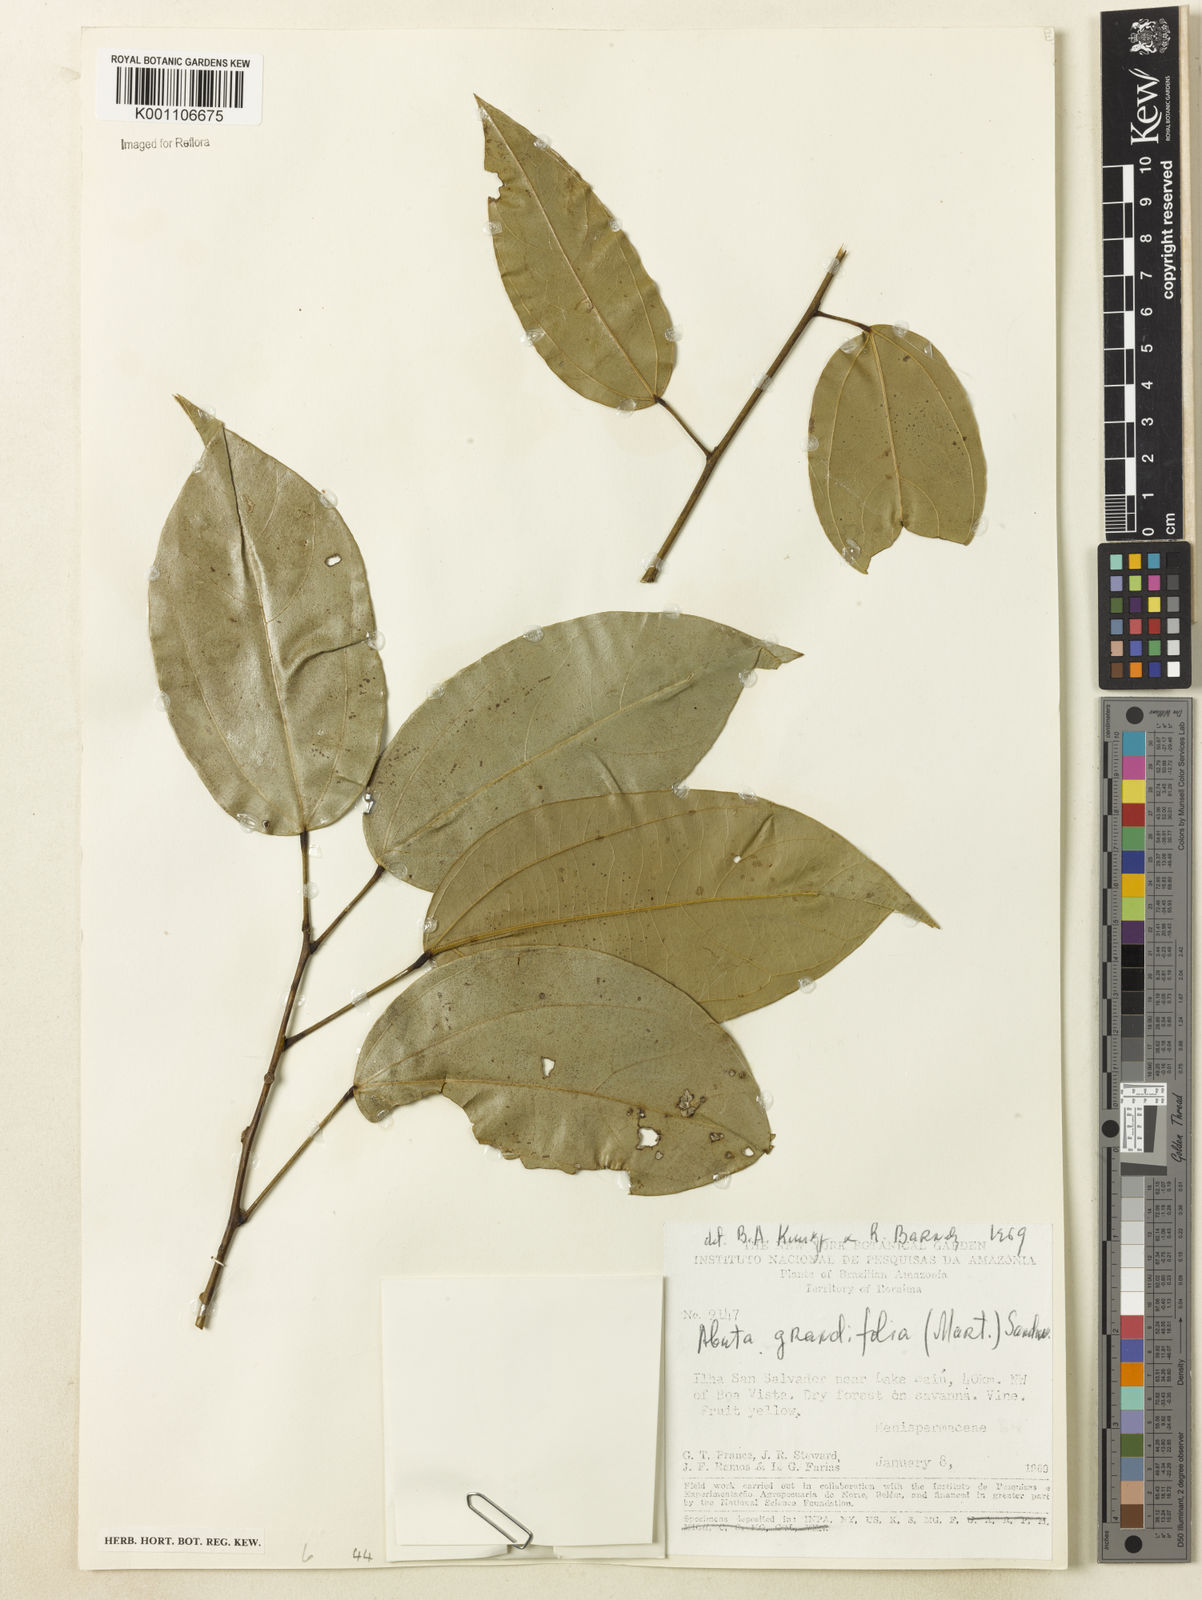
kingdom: Plantae
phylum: Tracheophyta
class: Magnoliopsida
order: Ranunculales
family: Menispermaceae
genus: Abuta
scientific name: Abuta grandifolia
